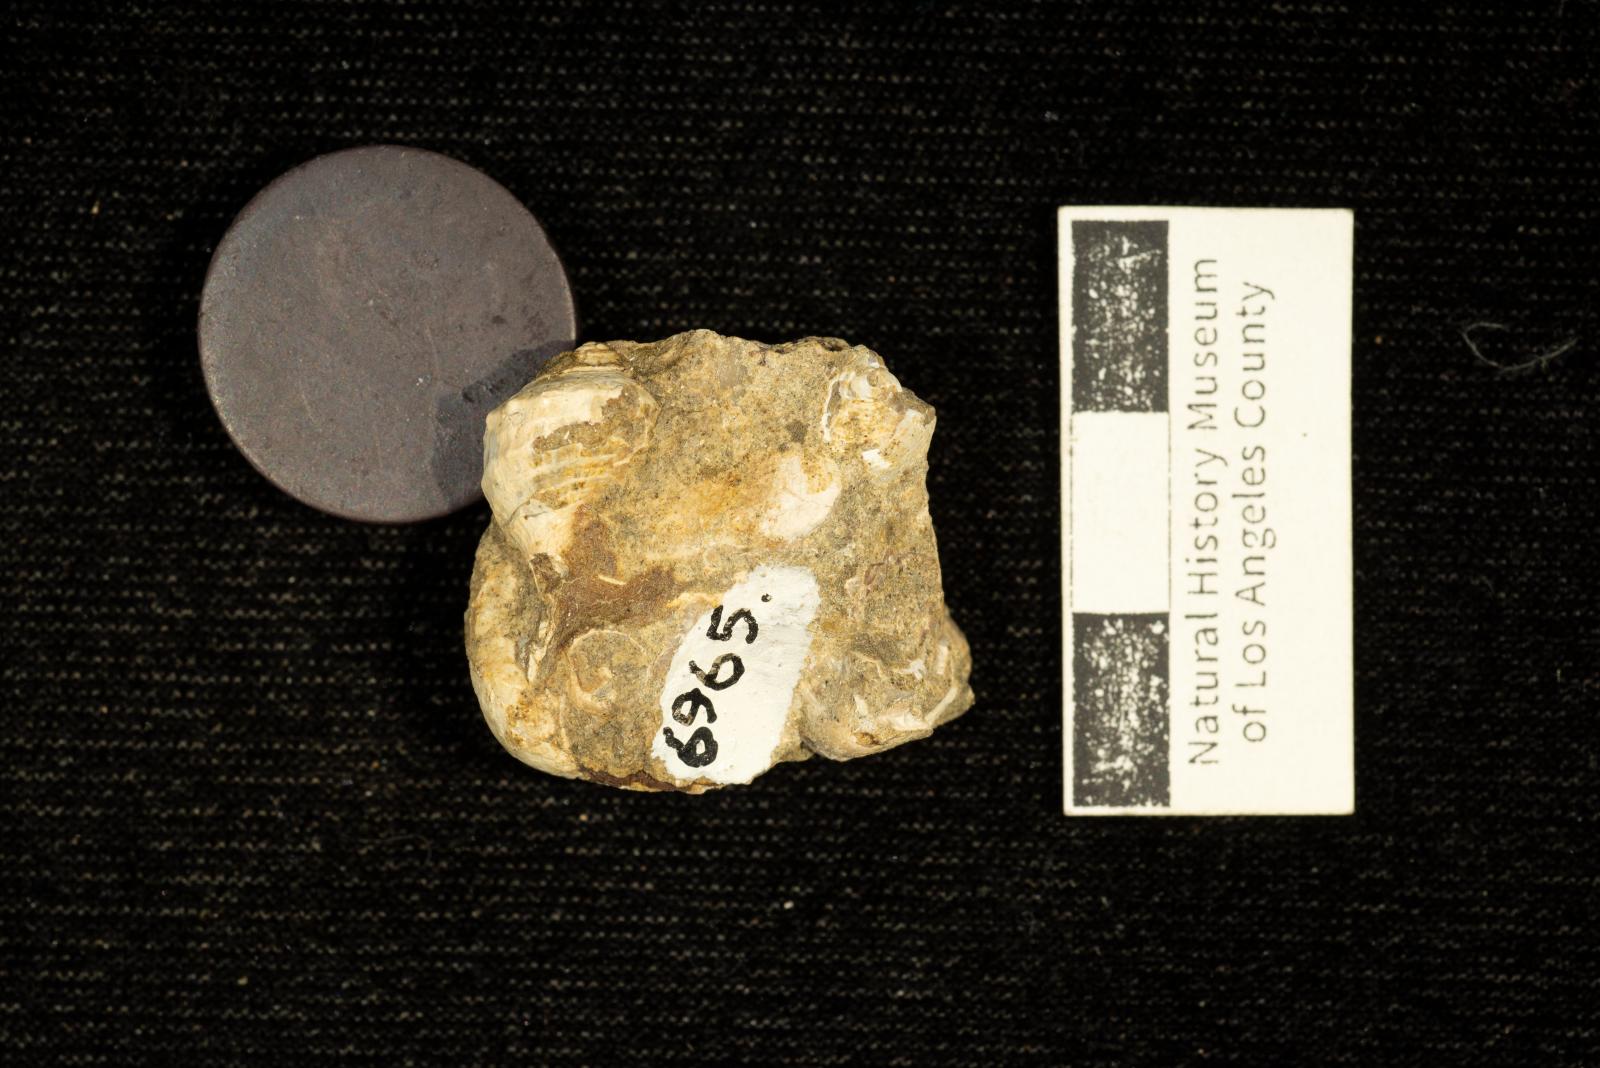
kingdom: Animalia
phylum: Mollusca
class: Gastropoda
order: Neogastropoda
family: Perissityidae
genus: Murphitys
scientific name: Murphitys corona
